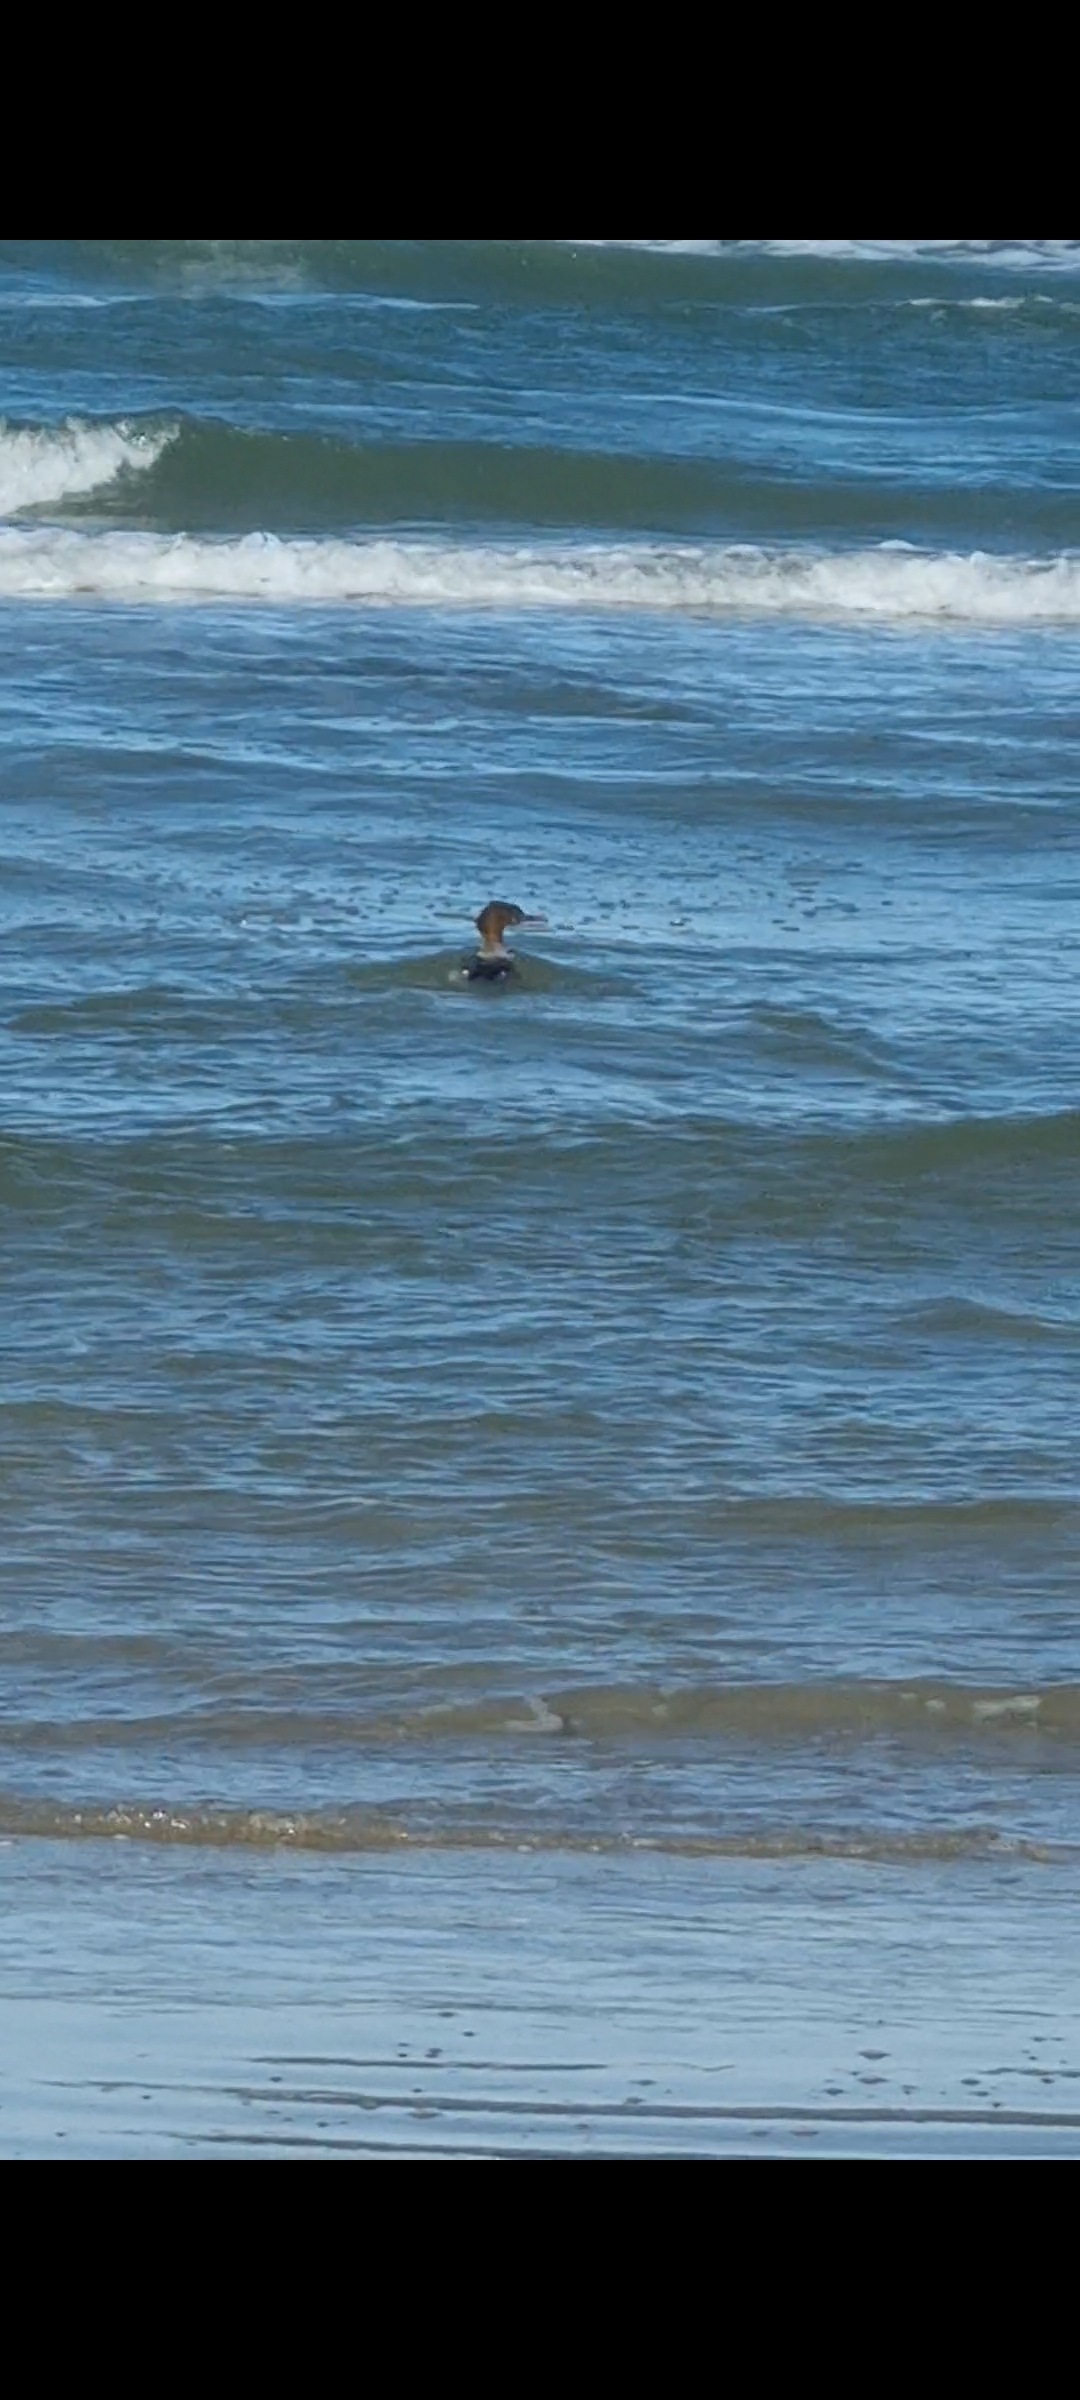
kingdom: Animalia
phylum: Chordata
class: Aves
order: Anseriformes
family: Anatidae
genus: Mergus
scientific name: Mergus serrator
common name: Toppet skallesluger
